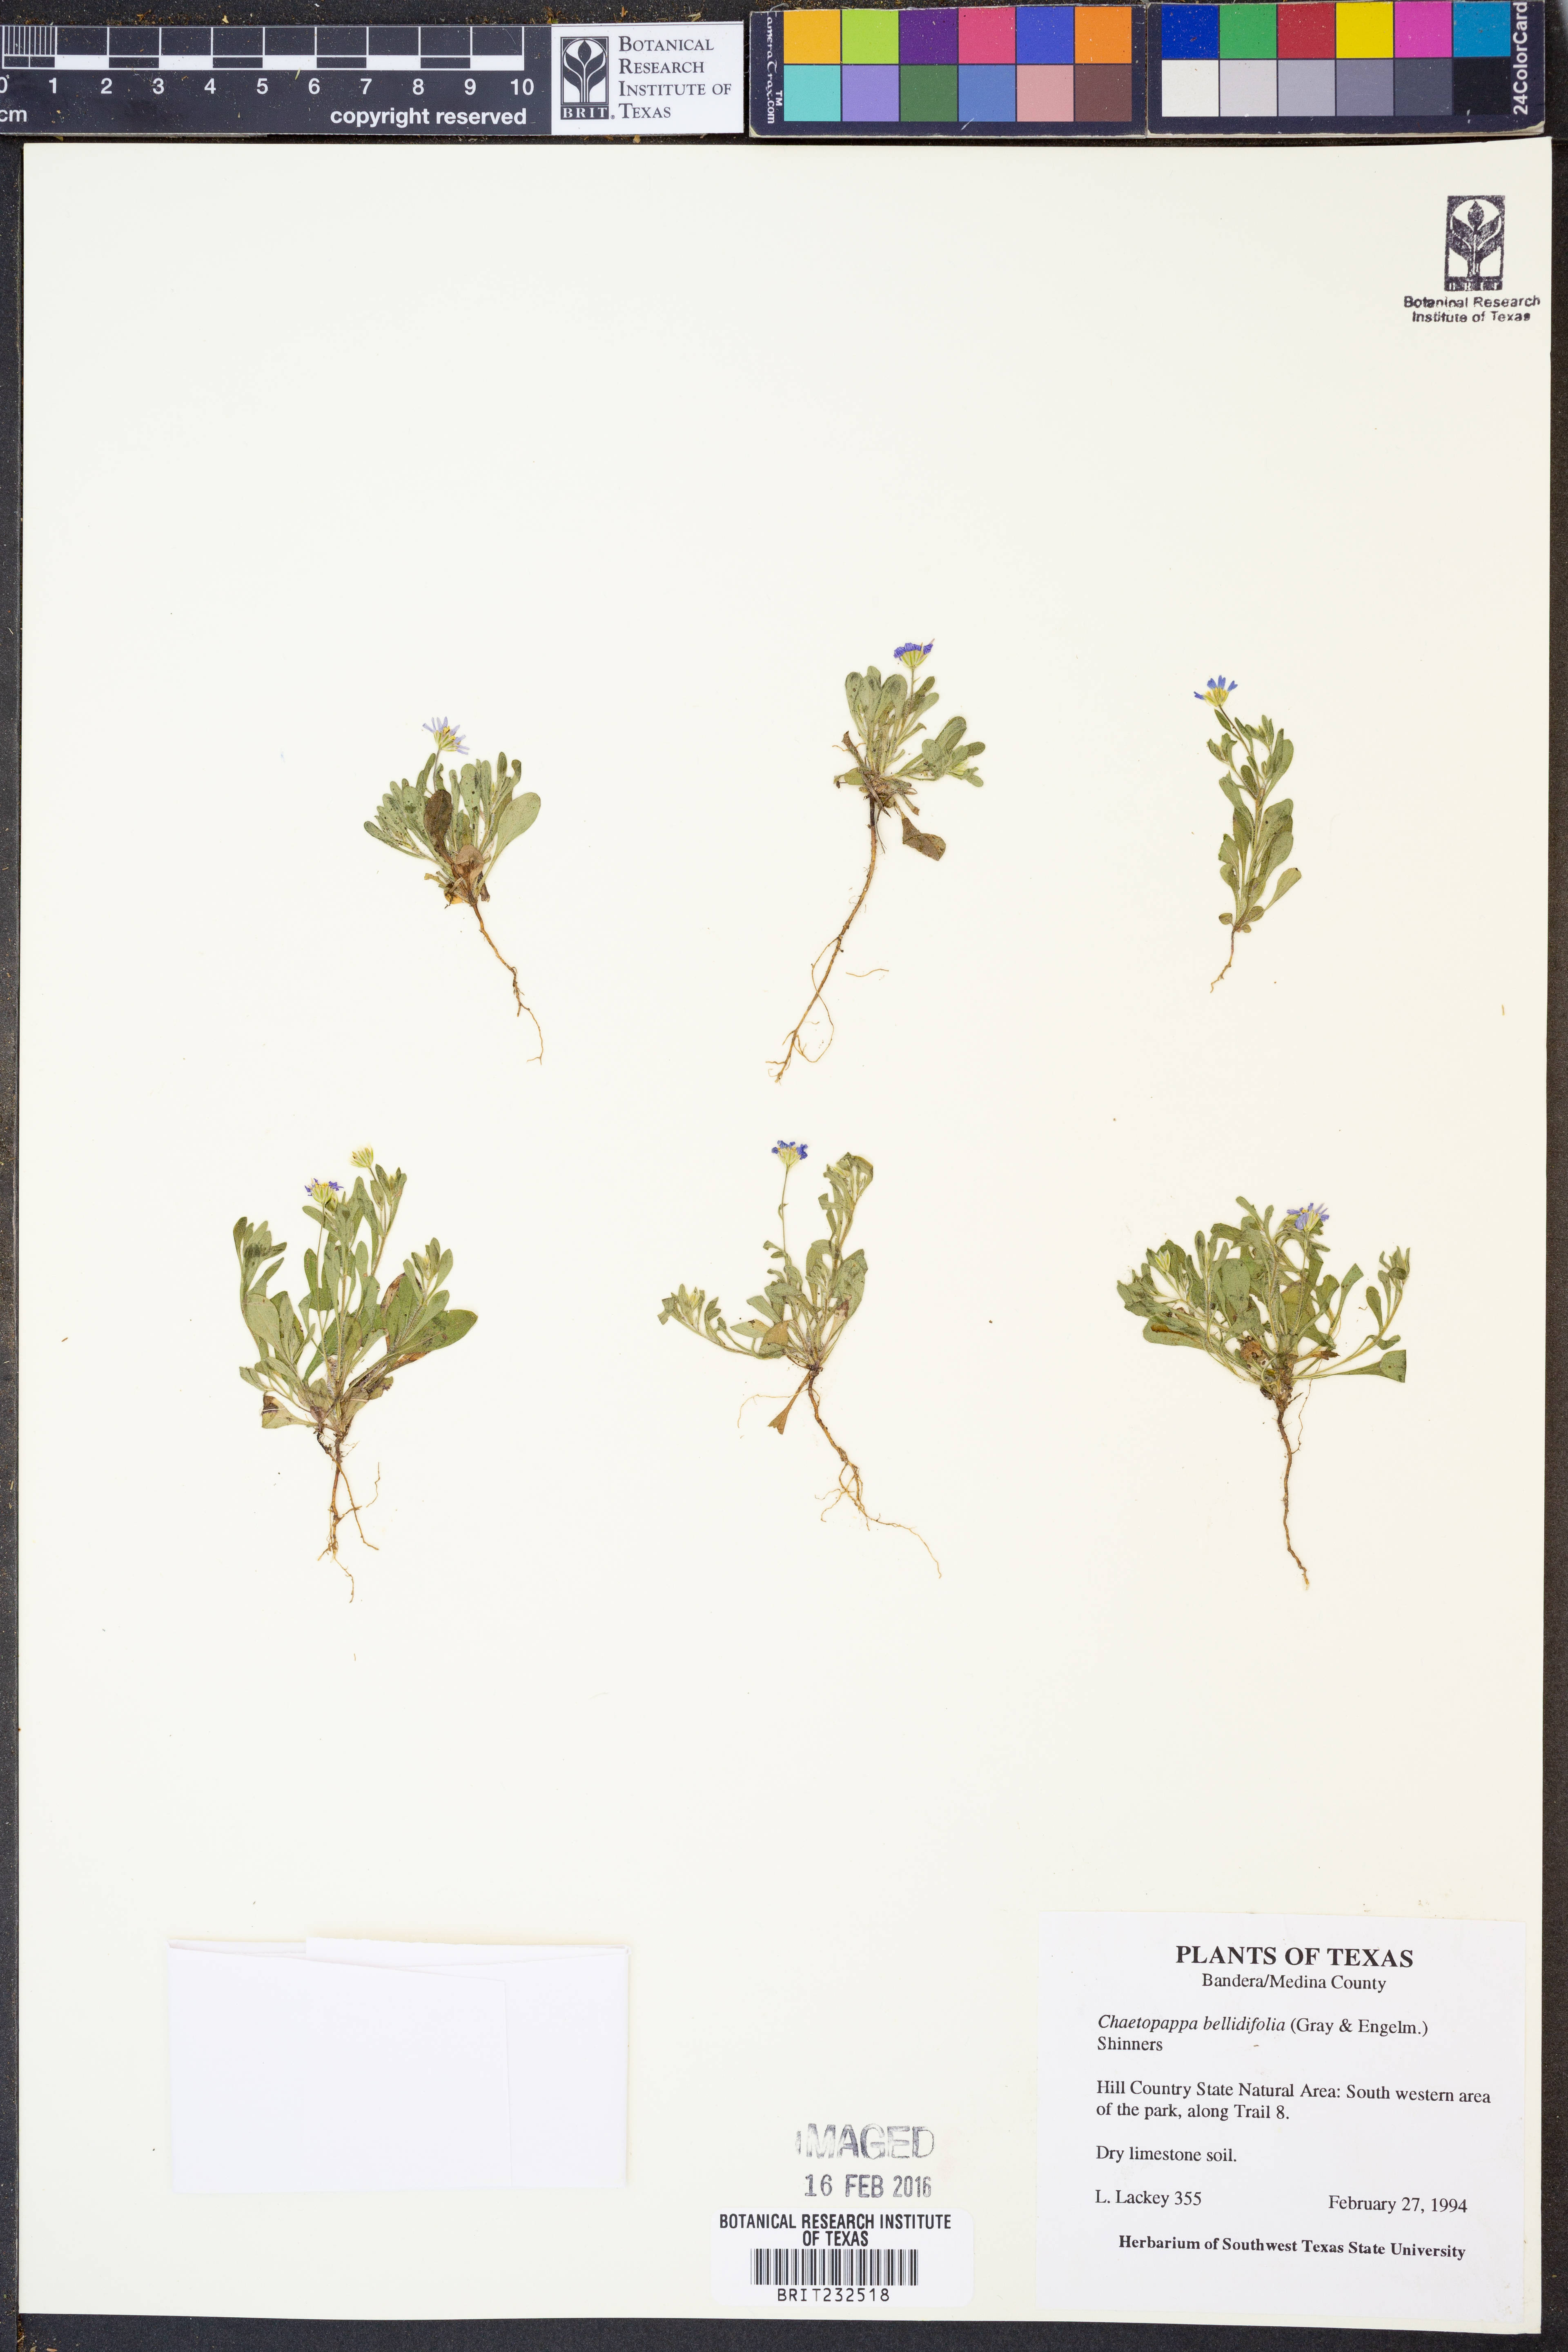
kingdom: Plantae
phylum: Tracheophyta
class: Magnoliopsida
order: Asterales
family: Asteraceae
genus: Chaetopappa
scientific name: Chaetopappa bellidifolia
